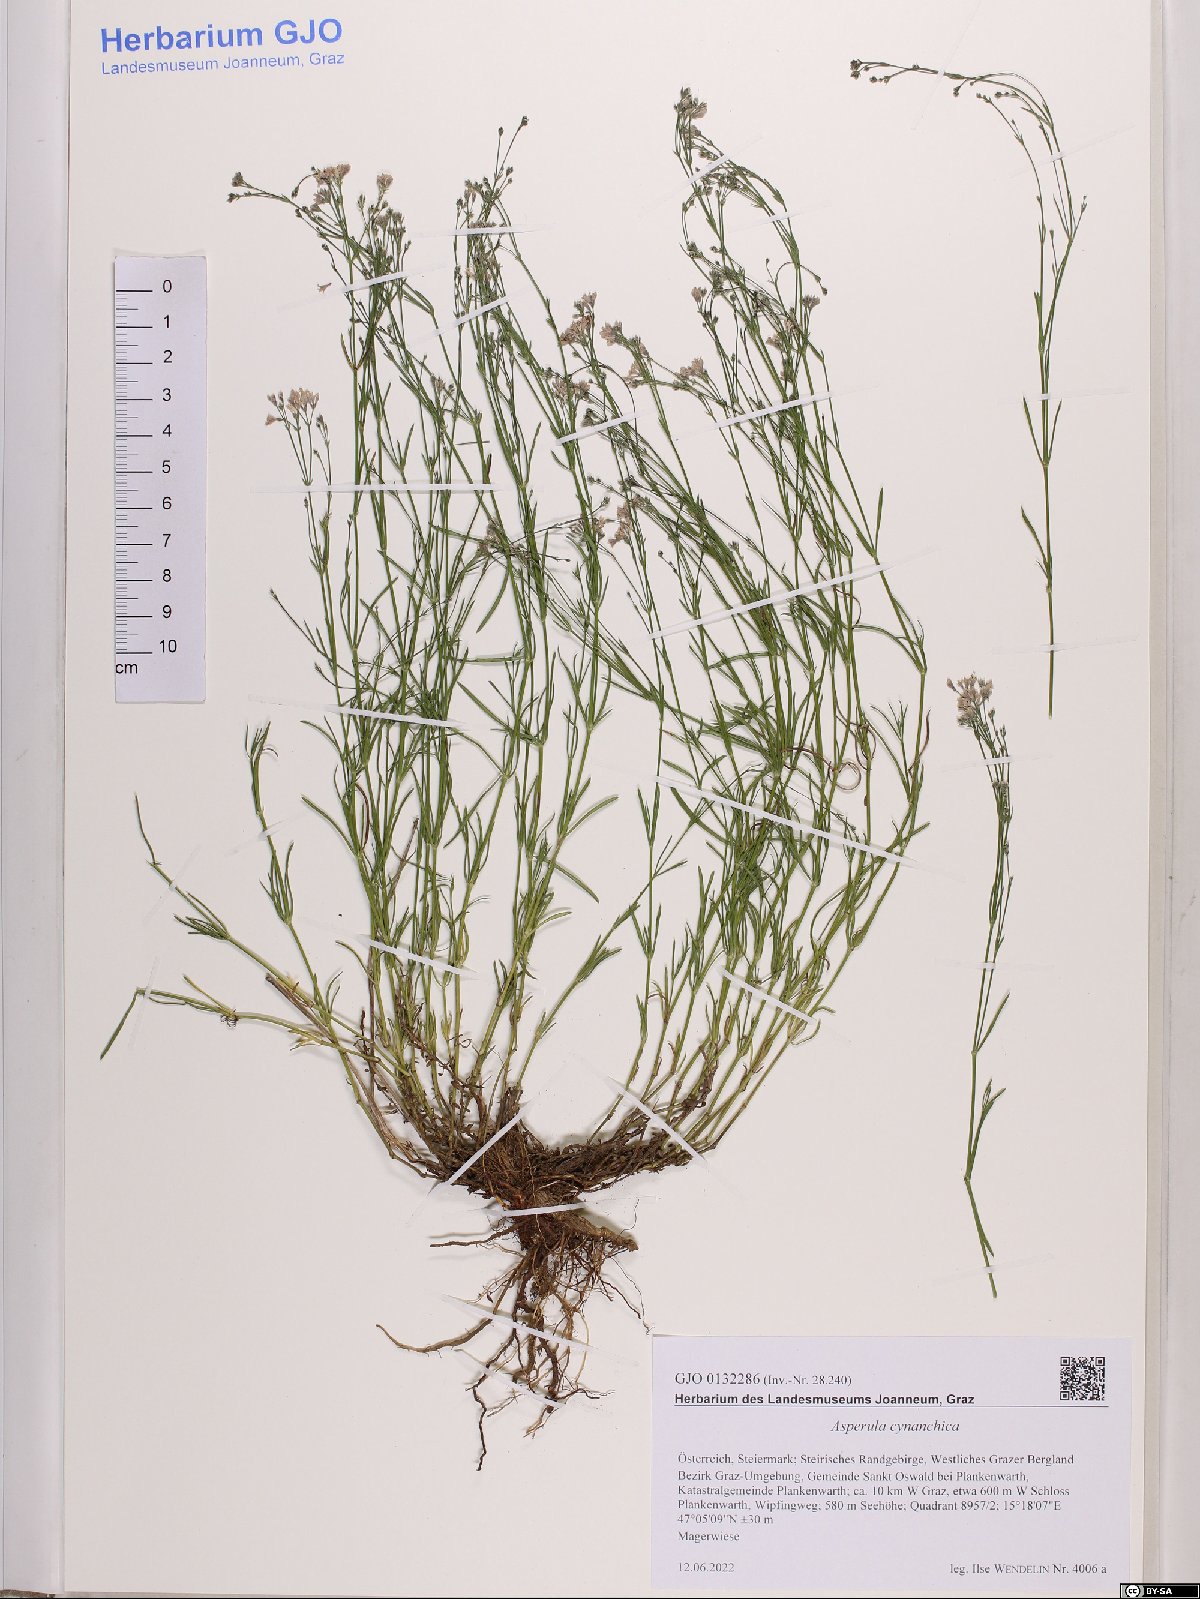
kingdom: Plantae
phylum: Tracheophyta
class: Magnoliopsida
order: Gentianales
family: Rubiaceae
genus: Cynanchica
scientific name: Cynanchica pyrenaica
